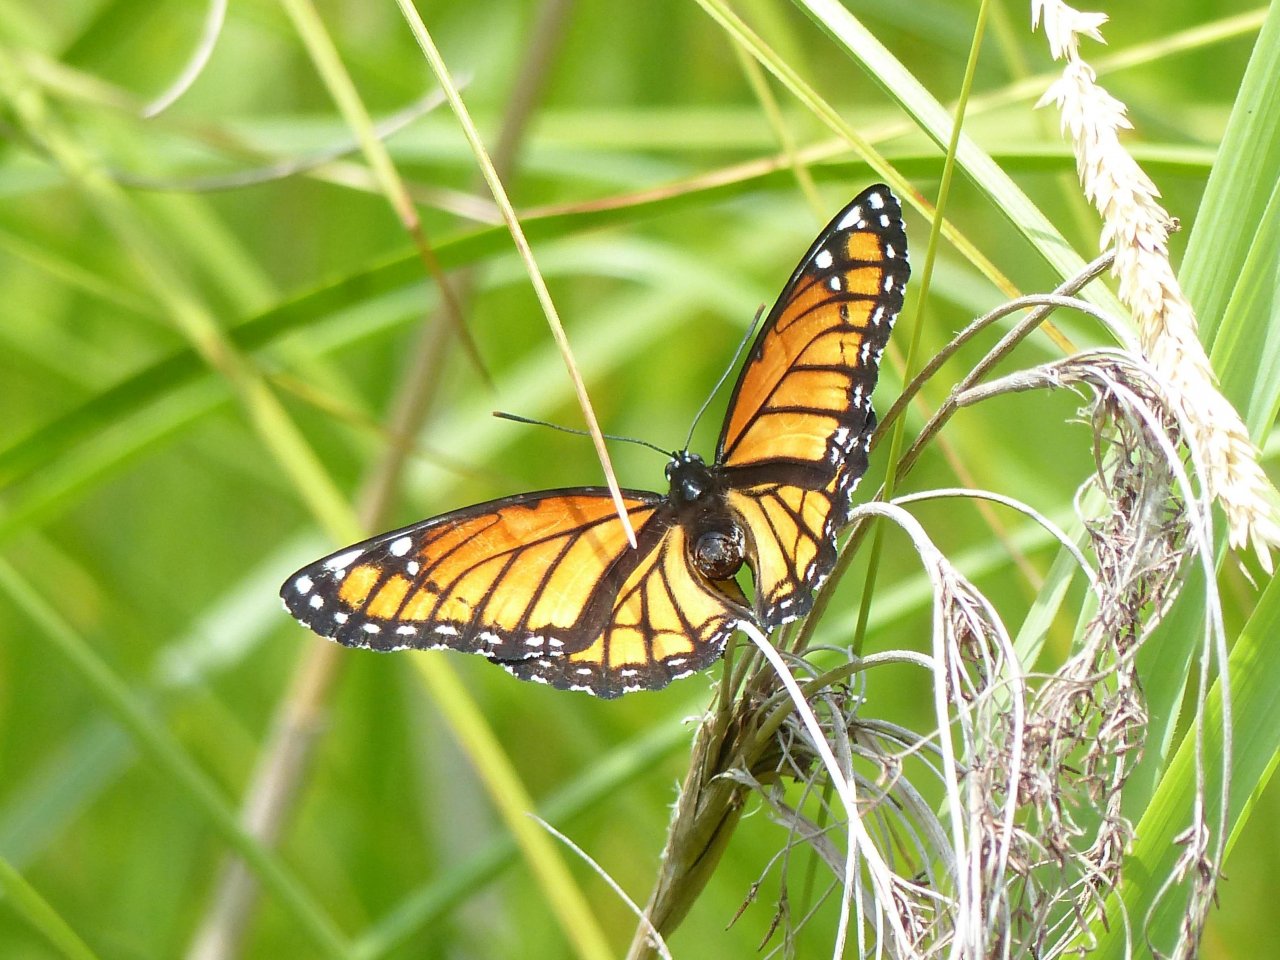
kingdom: Animalia
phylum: Arthropoda
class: Insecta
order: Lepidoptera
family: Nymphalidae
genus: Limenitis
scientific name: Limenitis archippus
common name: Viceroy
